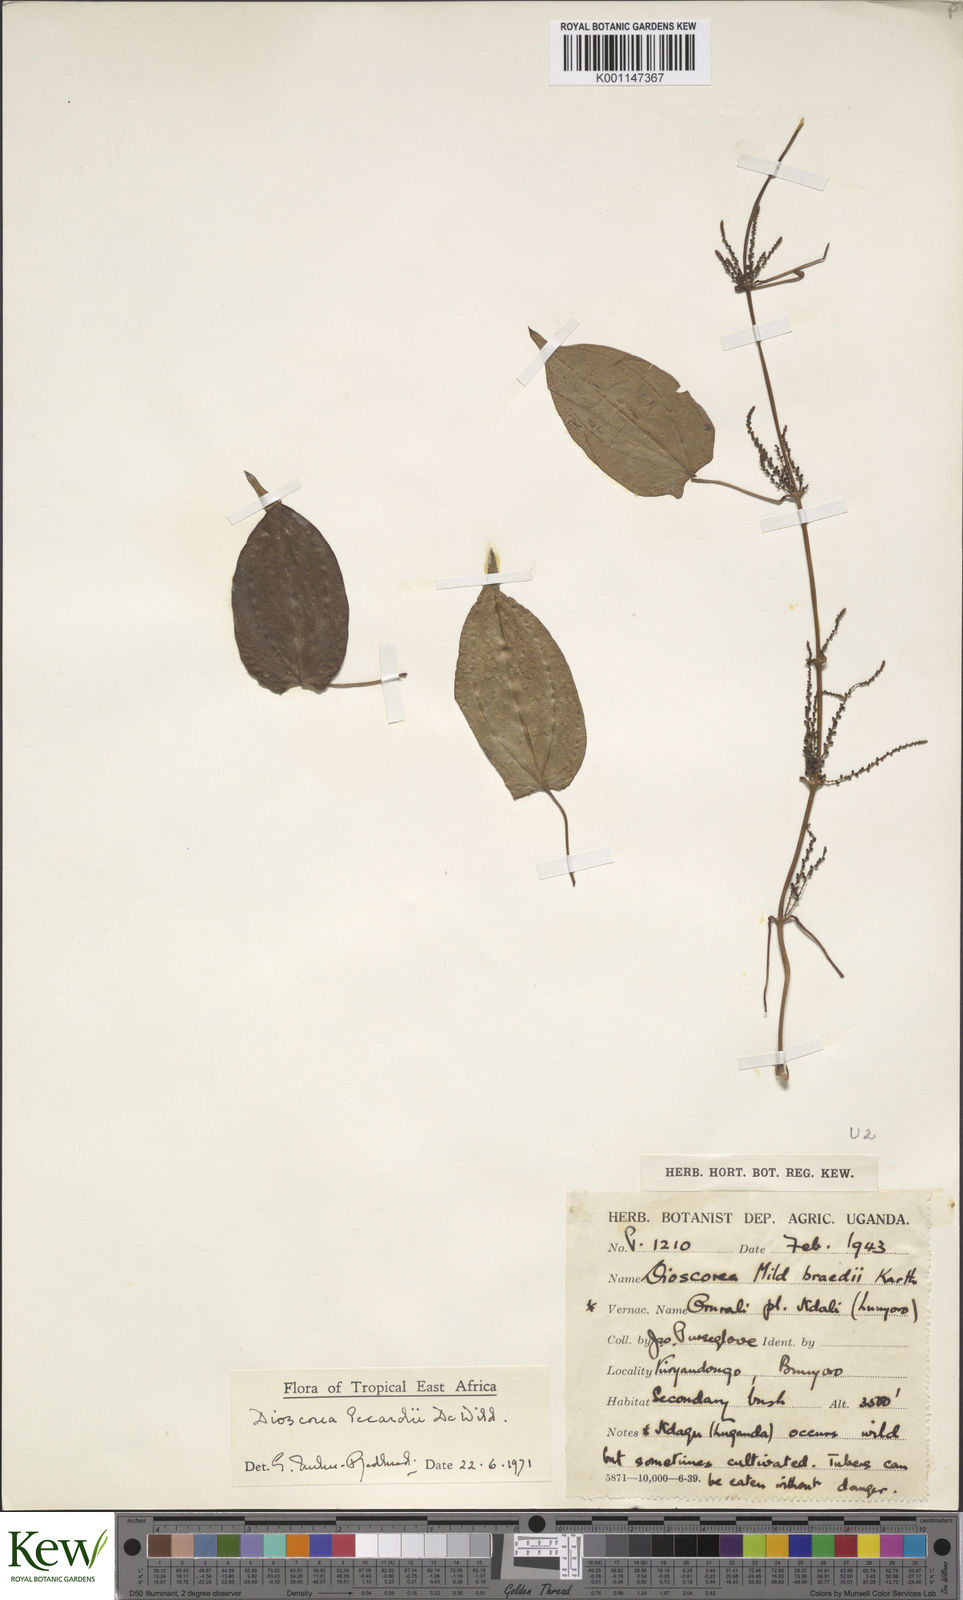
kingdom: Plantae
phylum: Tracheophyta
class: Liliopsida
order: Dioscoreales
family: Dioscoreaceae
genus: Dioscorea
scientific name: Dioscorea sagittifolia
